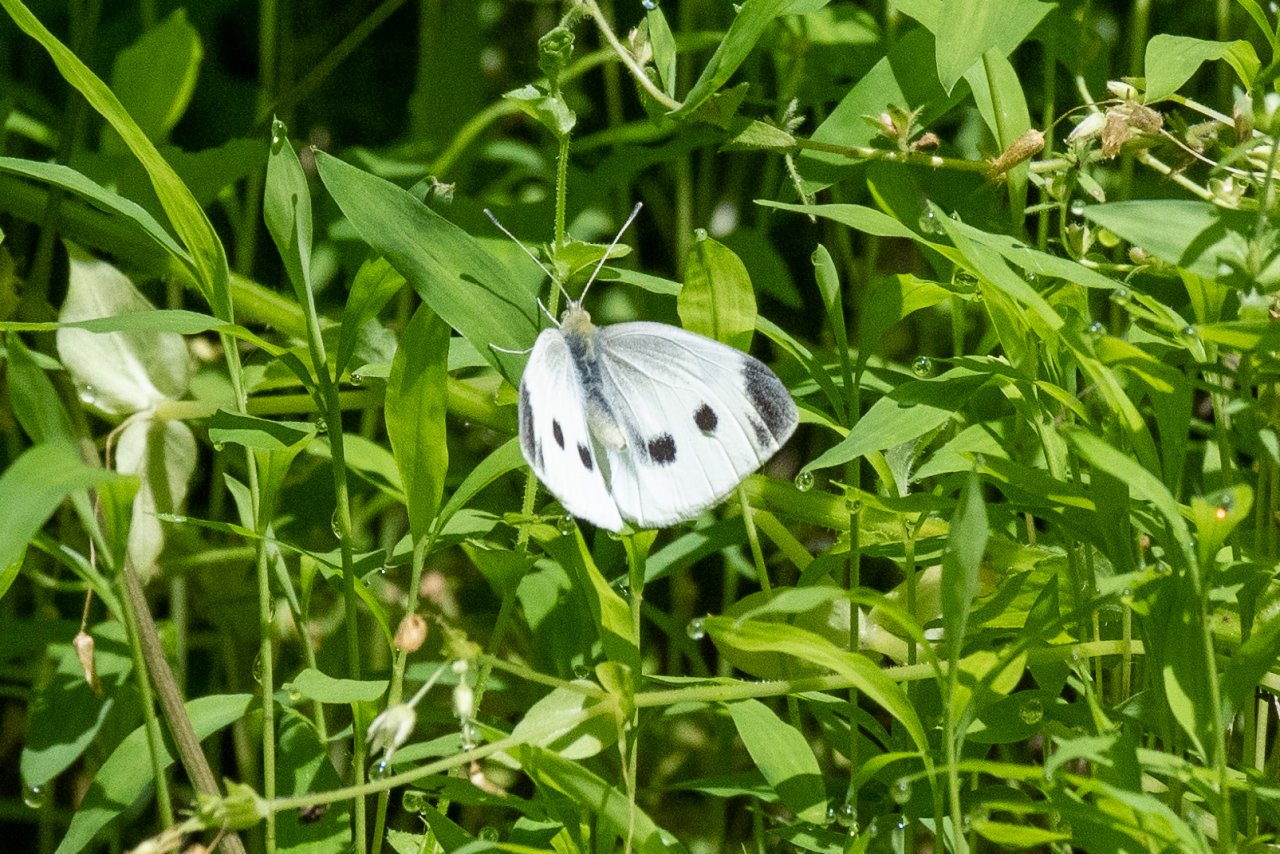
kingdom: Animalia
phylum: Arthropoda
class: Insecta
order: Lepidoptera
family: Pieridae
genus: Pieris
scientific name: Pieris rapae
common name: Cabbage White
